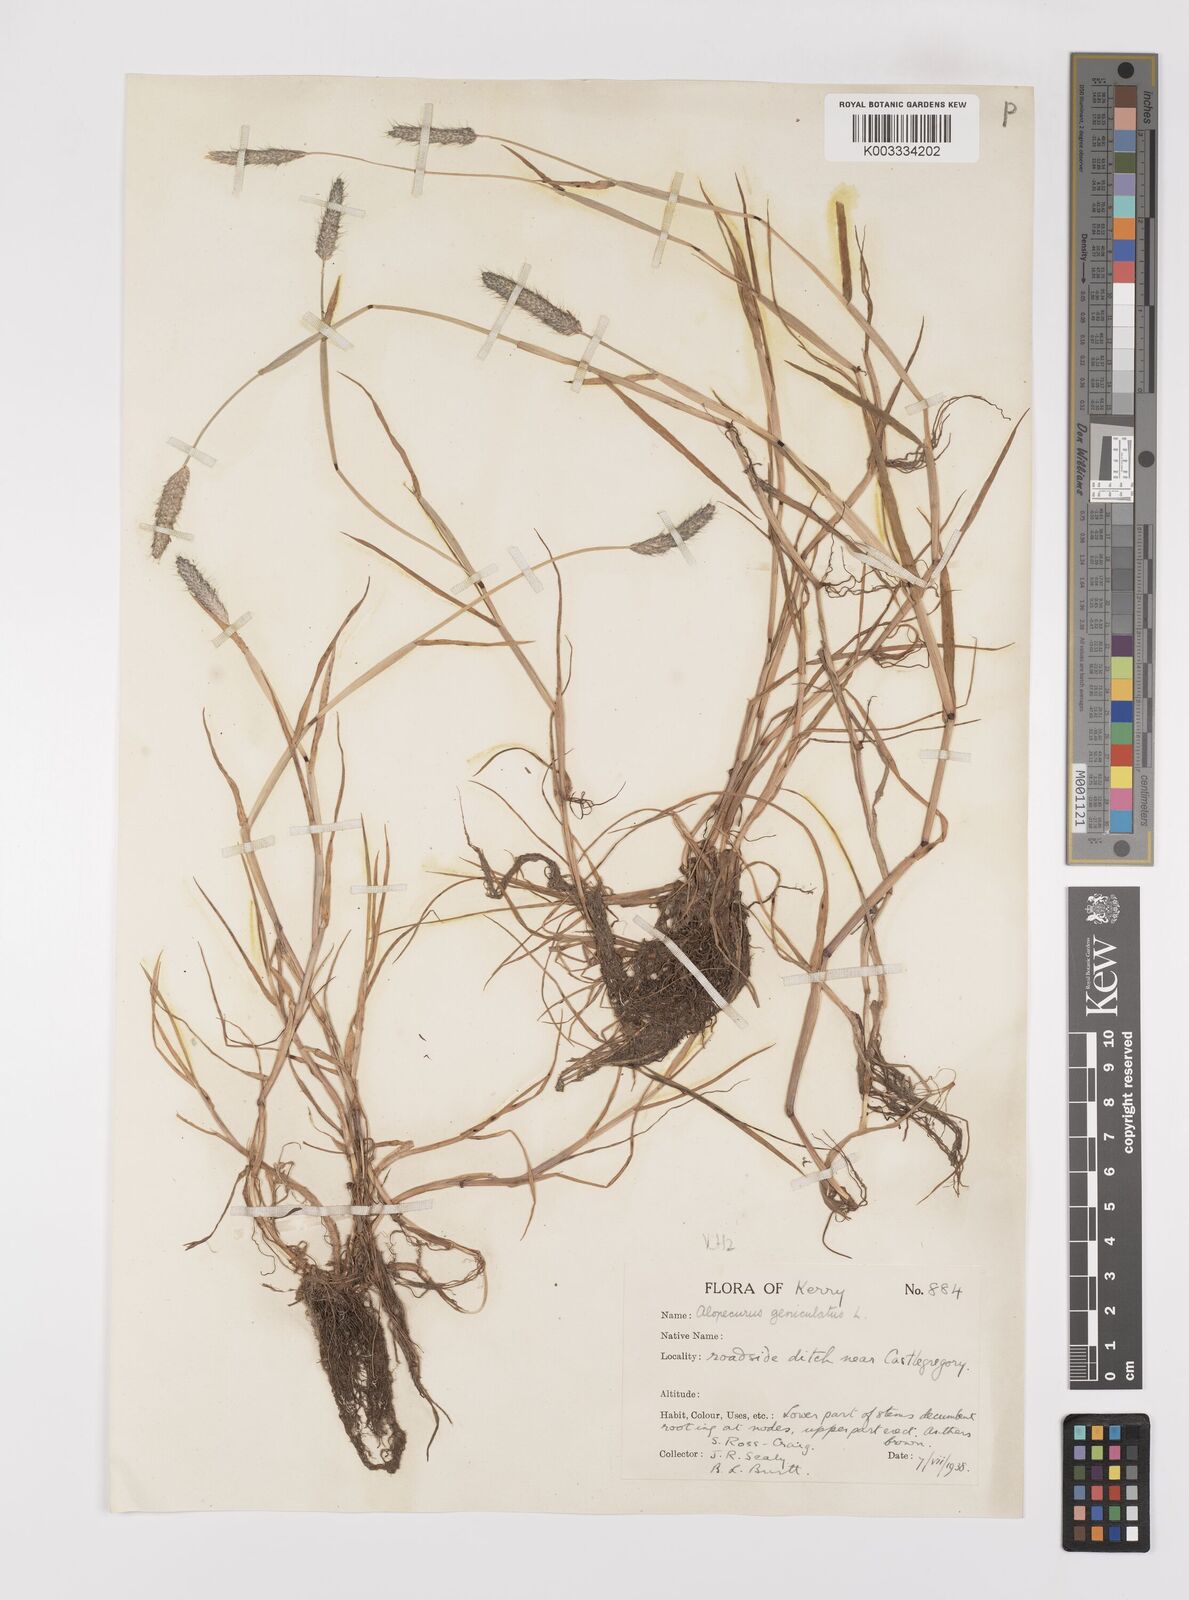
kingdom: Plantae
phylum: Tracheophyta
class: Liliopsida
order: Poales
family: Poaceae
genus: Alopecurus
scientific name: Alopecurus geniculatus
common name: Water foxtail
